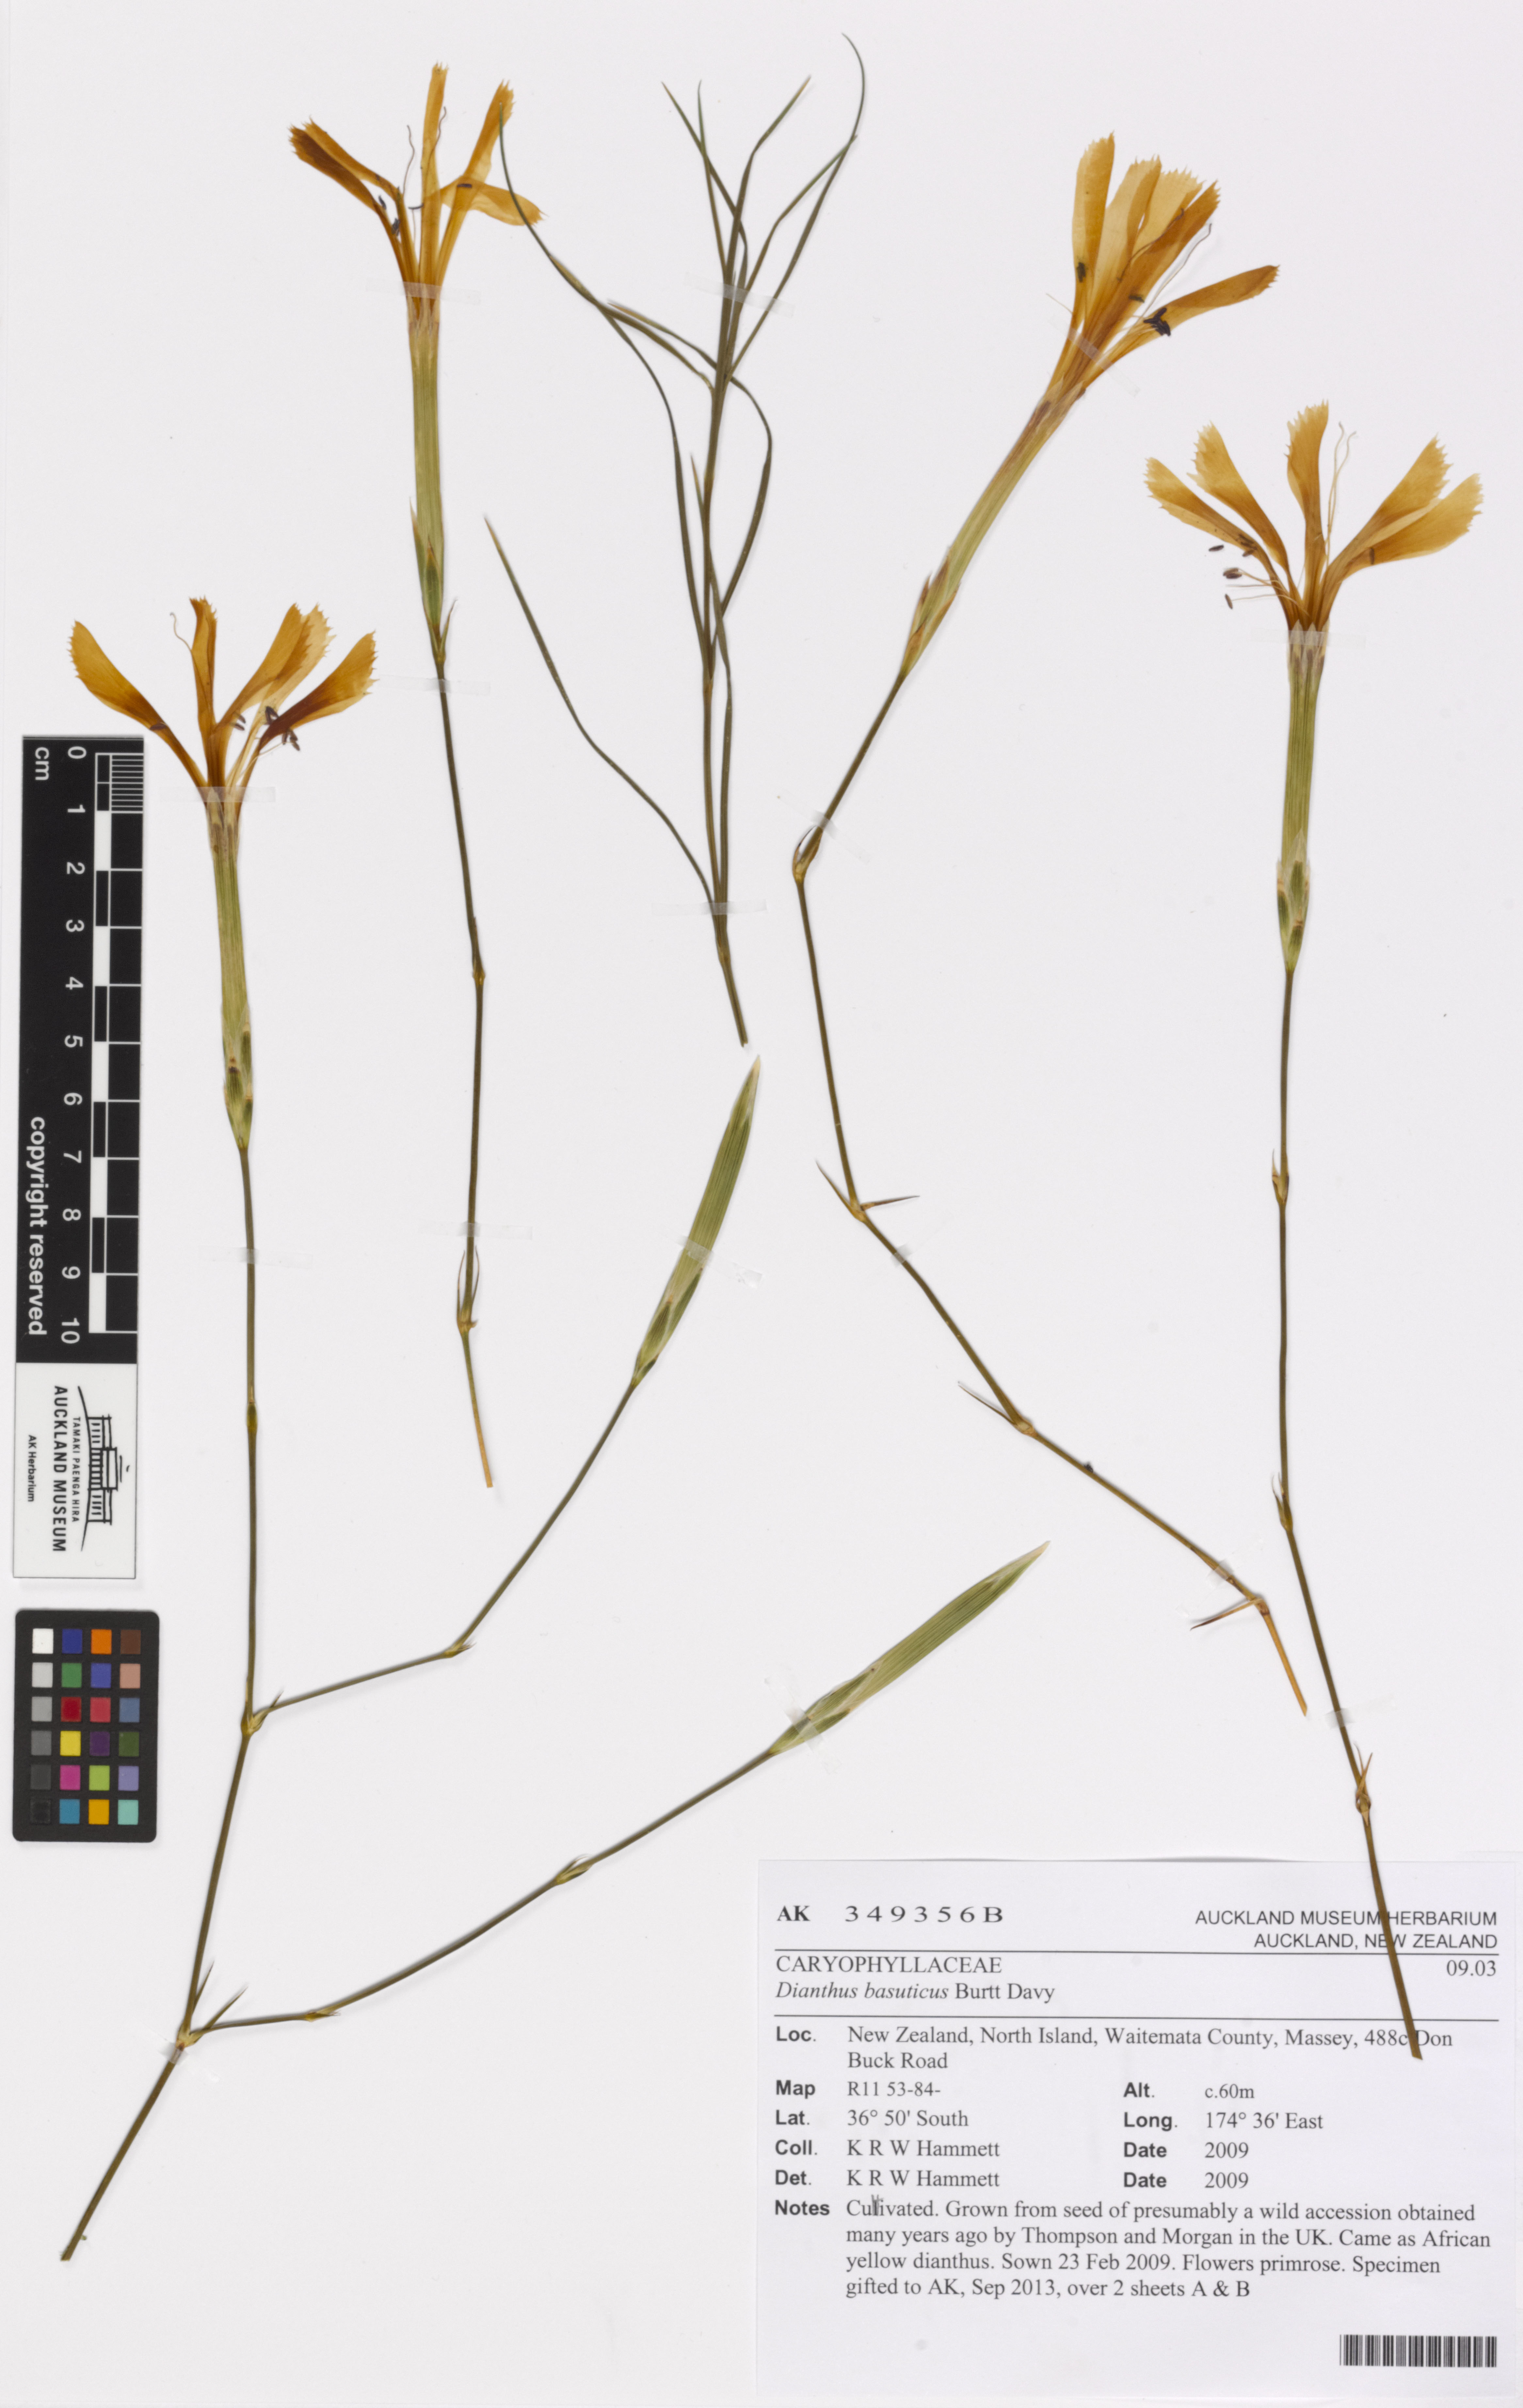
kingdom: Plantae
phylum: Tracheophyta
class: Magnoliopsida
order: Caryophyllales
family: Caryophyllaceae
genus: Dianthus
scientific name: Dianthus basuticus
